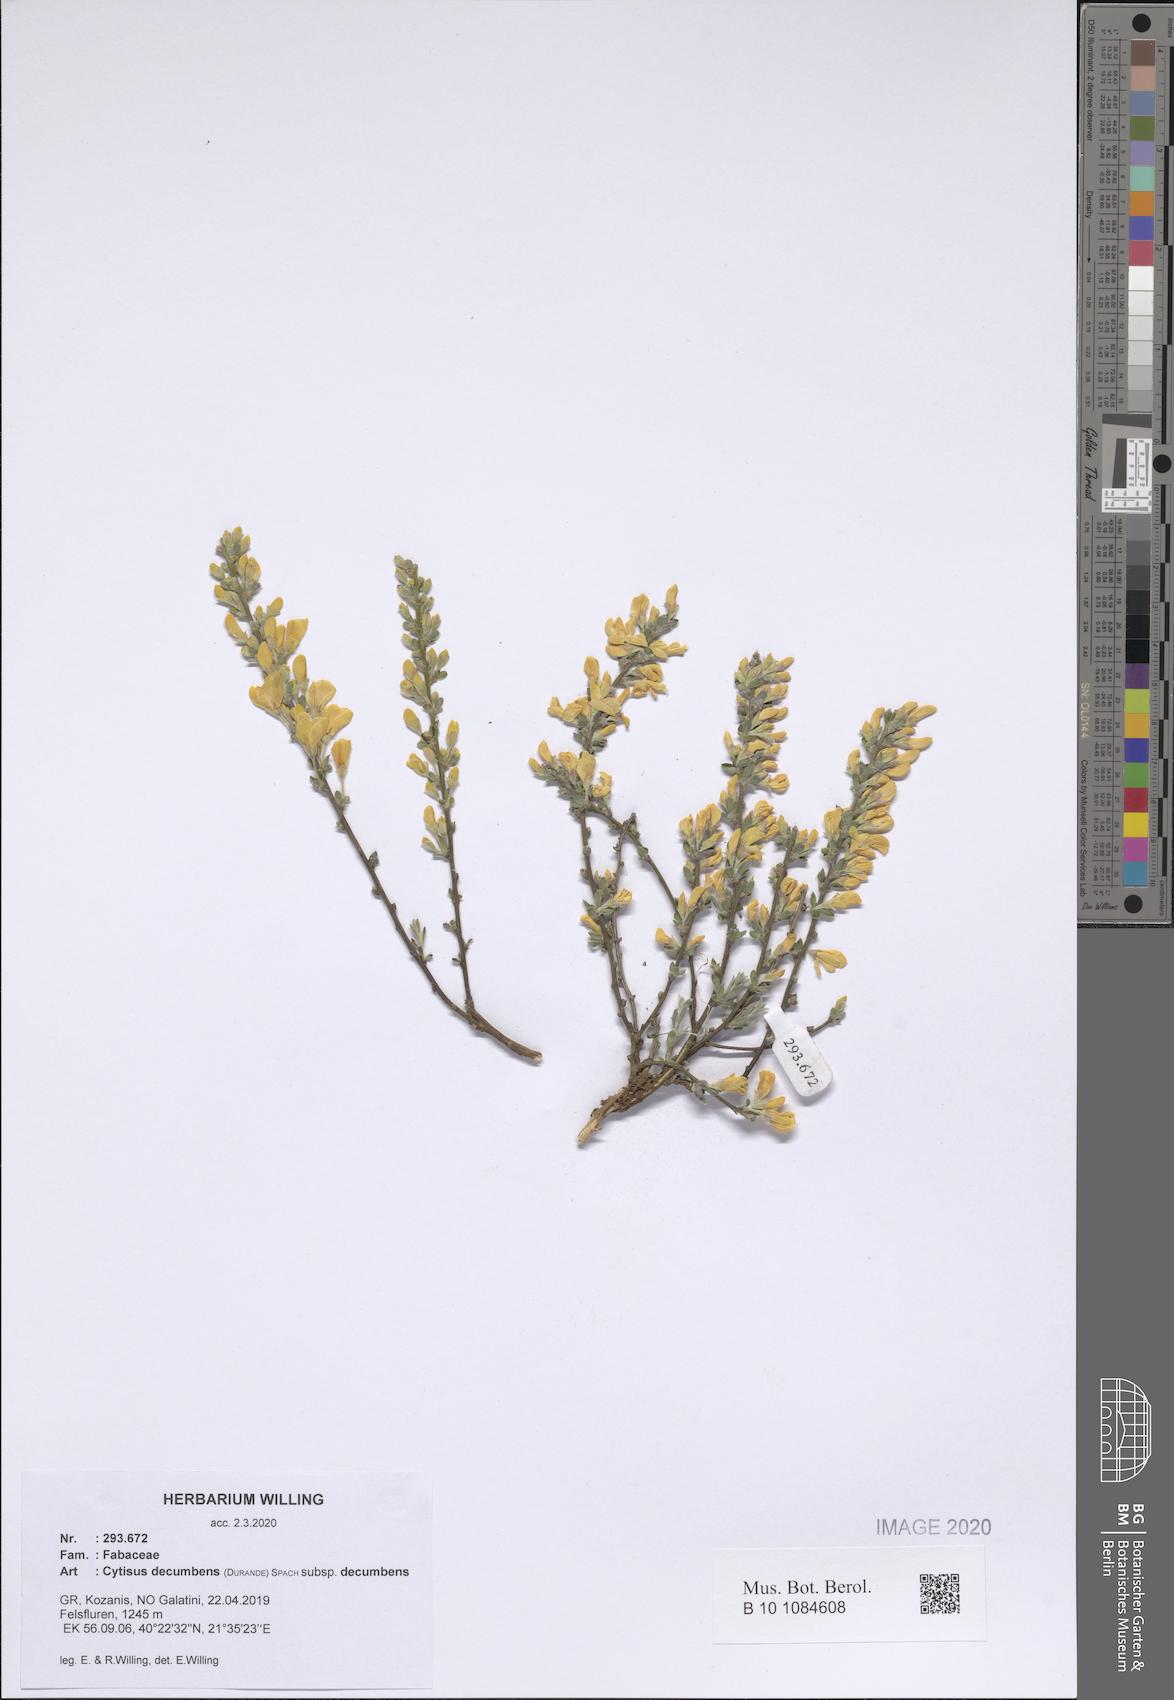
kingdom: Plantae
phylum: Tracheophyta
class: Magnoliopsida
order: Fabales
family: Fabaceae
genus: Cytisus
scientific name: Cytisus decumbens
